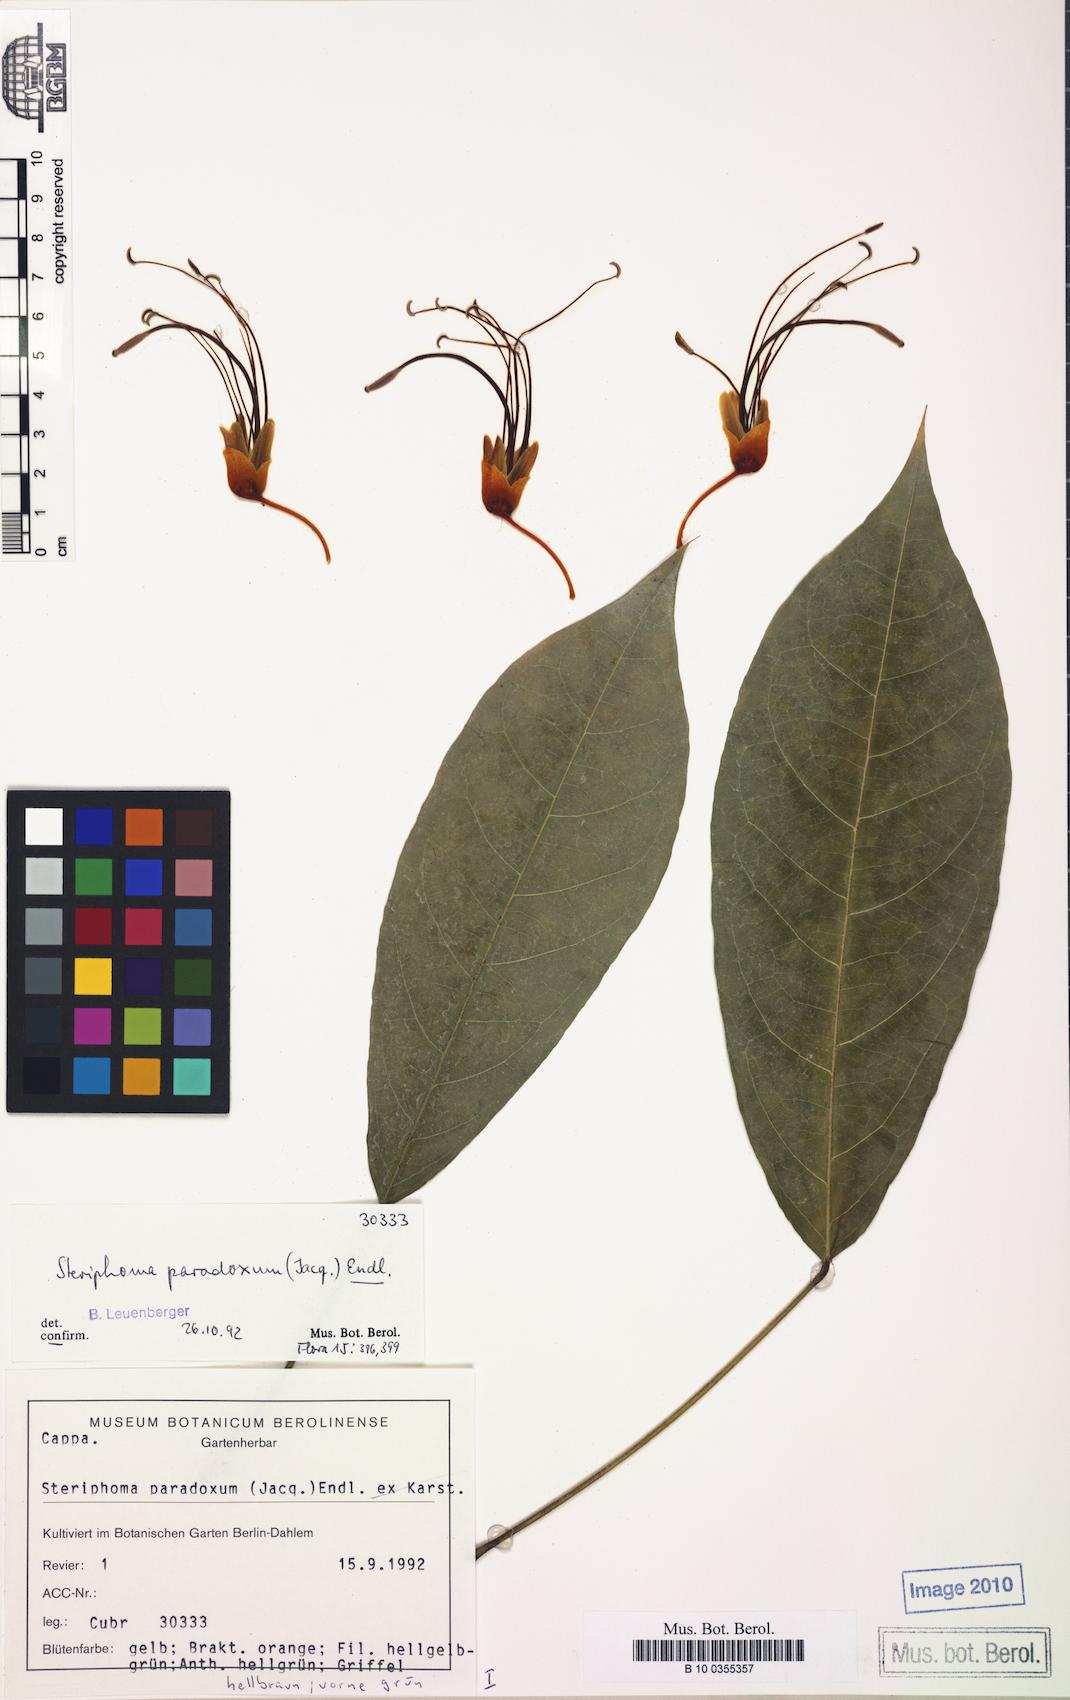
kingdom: Plantae
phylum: Tracheophyta
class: Magnoliopsida
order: Brassicales
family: Capparaceae
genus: Steriphoma
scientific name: Steriphoma paradoxum
